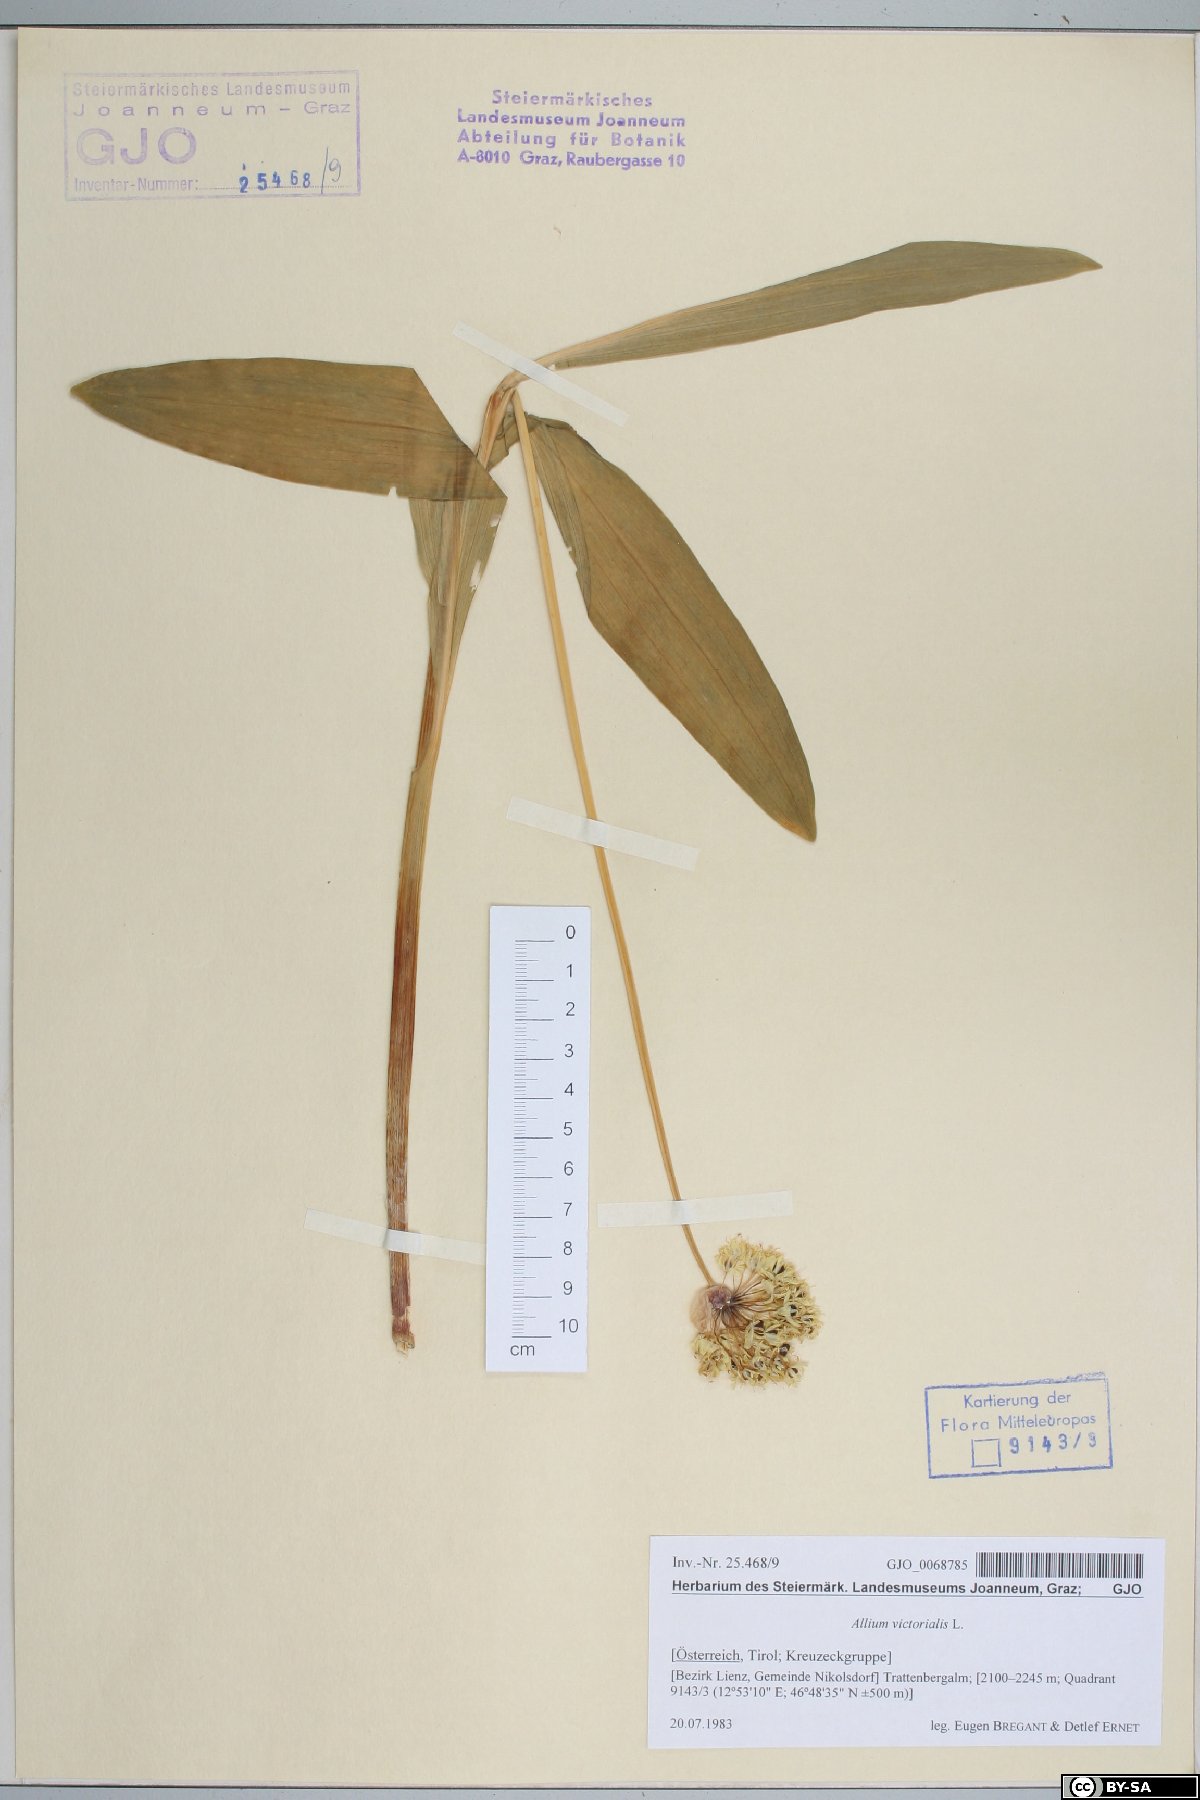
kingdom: Plantae
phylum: Tracheophyta
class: Liliopsida
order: Asparagales
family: Amaryllidaceae
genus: Allium
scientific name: Allium victorialis
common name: Alpine leek
